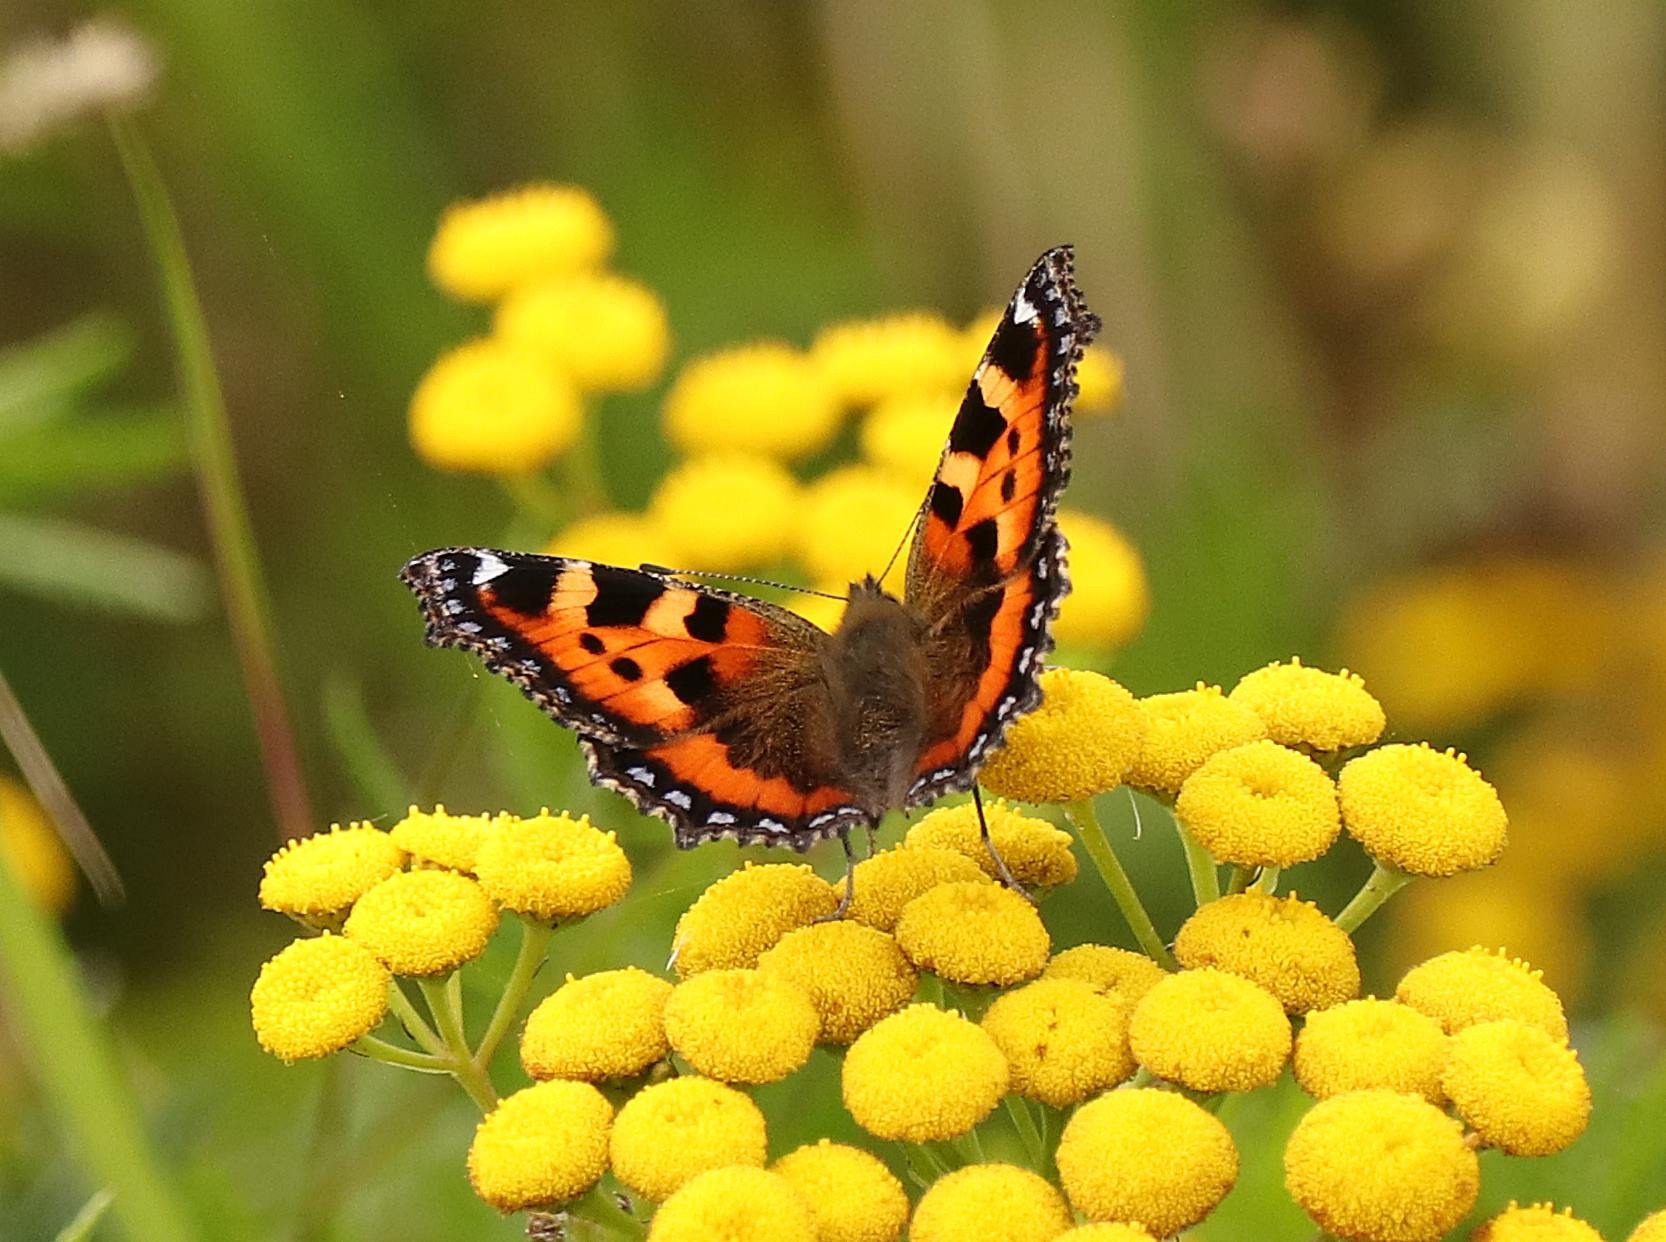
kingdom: Animalia
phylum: Arthropoda
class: Insecta
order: Lepidoptera
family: Nymphalidae
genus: Aglais
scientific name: Aglais urticae
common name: Nældens takvinge
